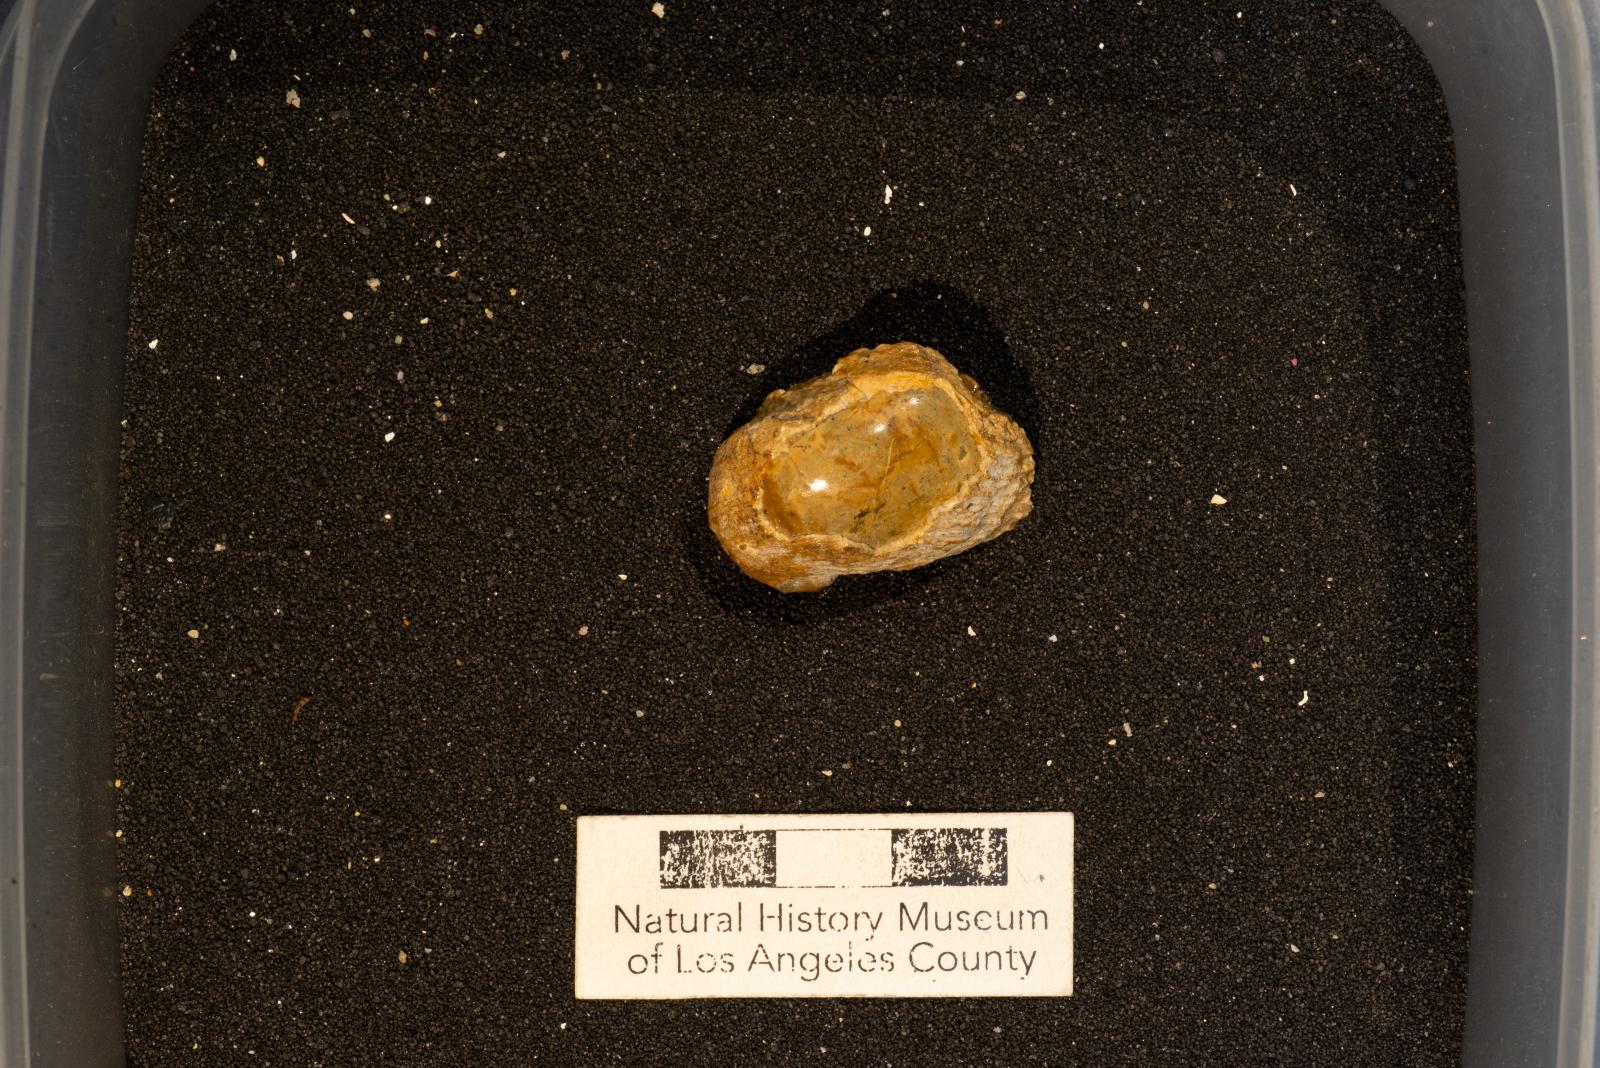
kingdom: Animalia
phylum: Mollusca
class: Gastropoda
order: Littorinimorpha
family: Calyptraeidae
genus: Lysis
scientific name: Lysis jalamaca
